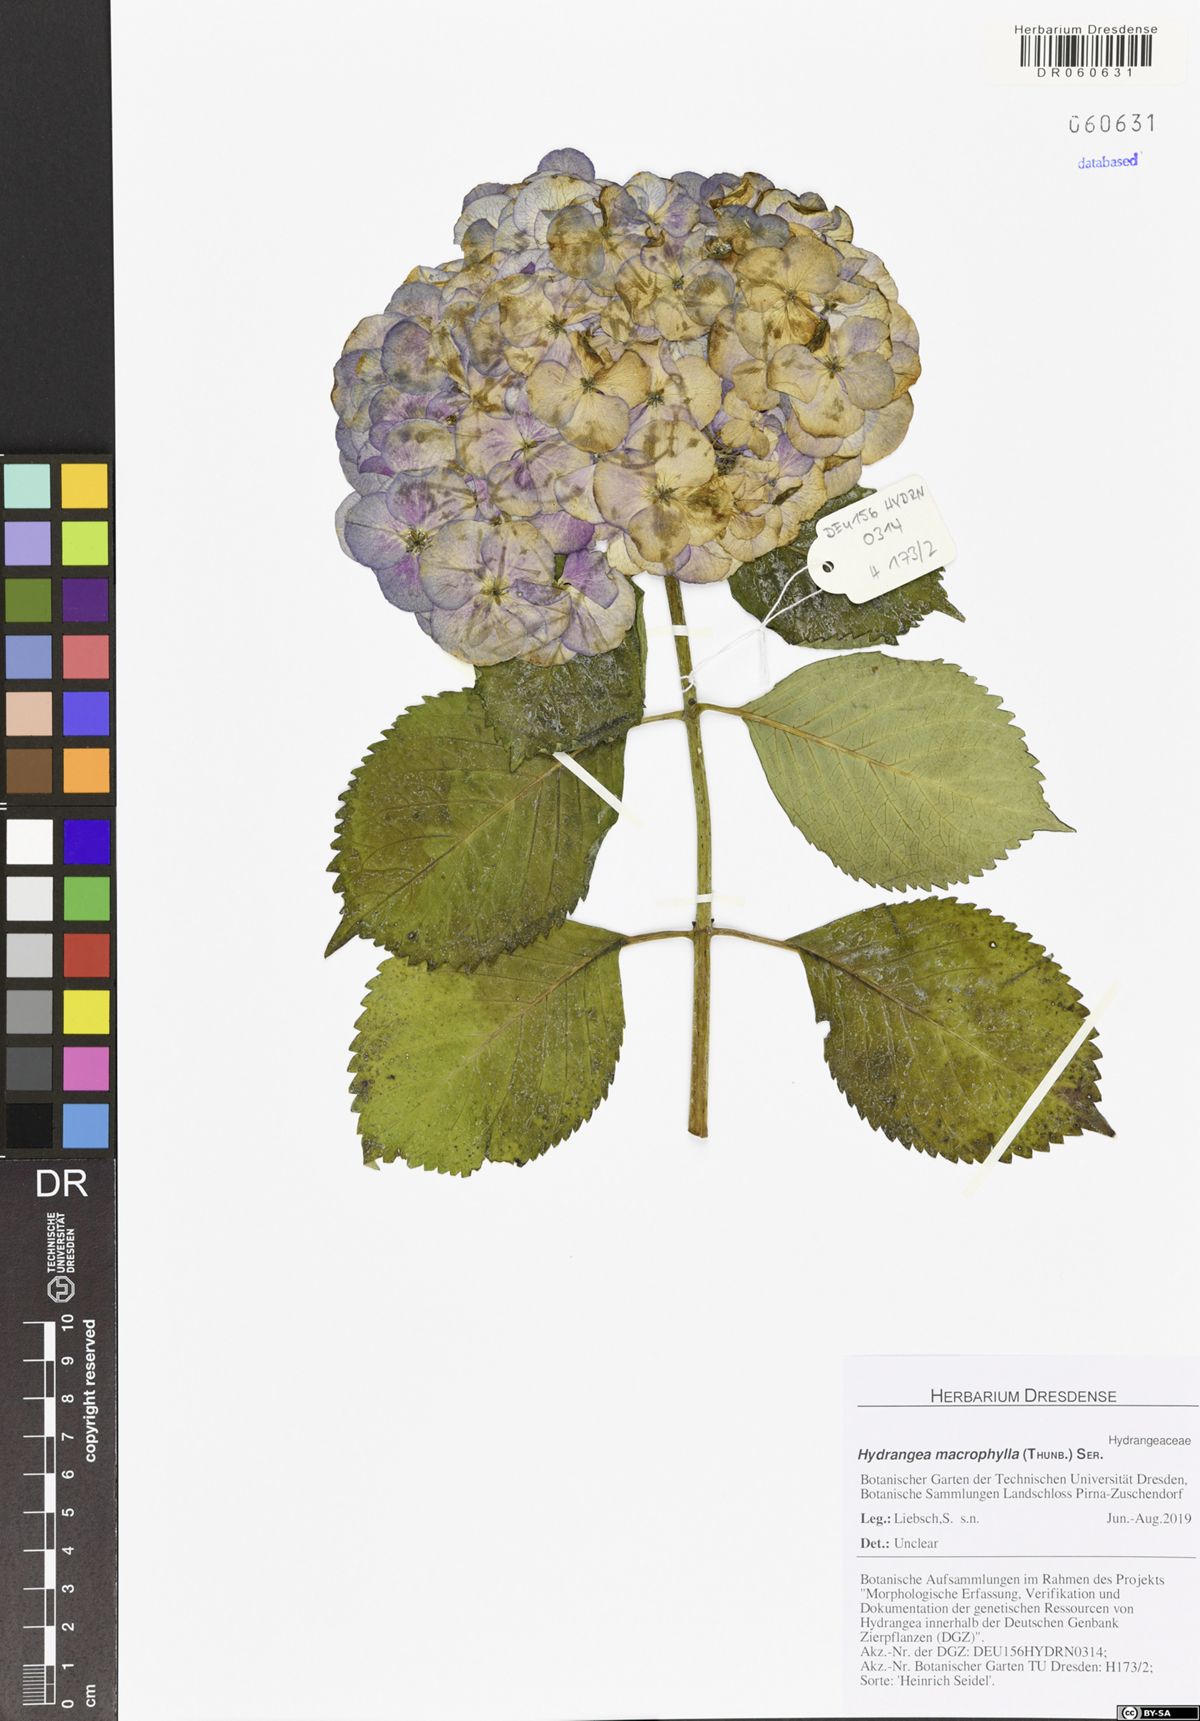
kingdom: Plantae
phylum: Tracheophyta
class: Magnoliopsida
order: Cornales
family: Hydrangeaceae
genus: Hydrangea
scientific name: Hydrangea macrophylla
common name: Hydrangea
